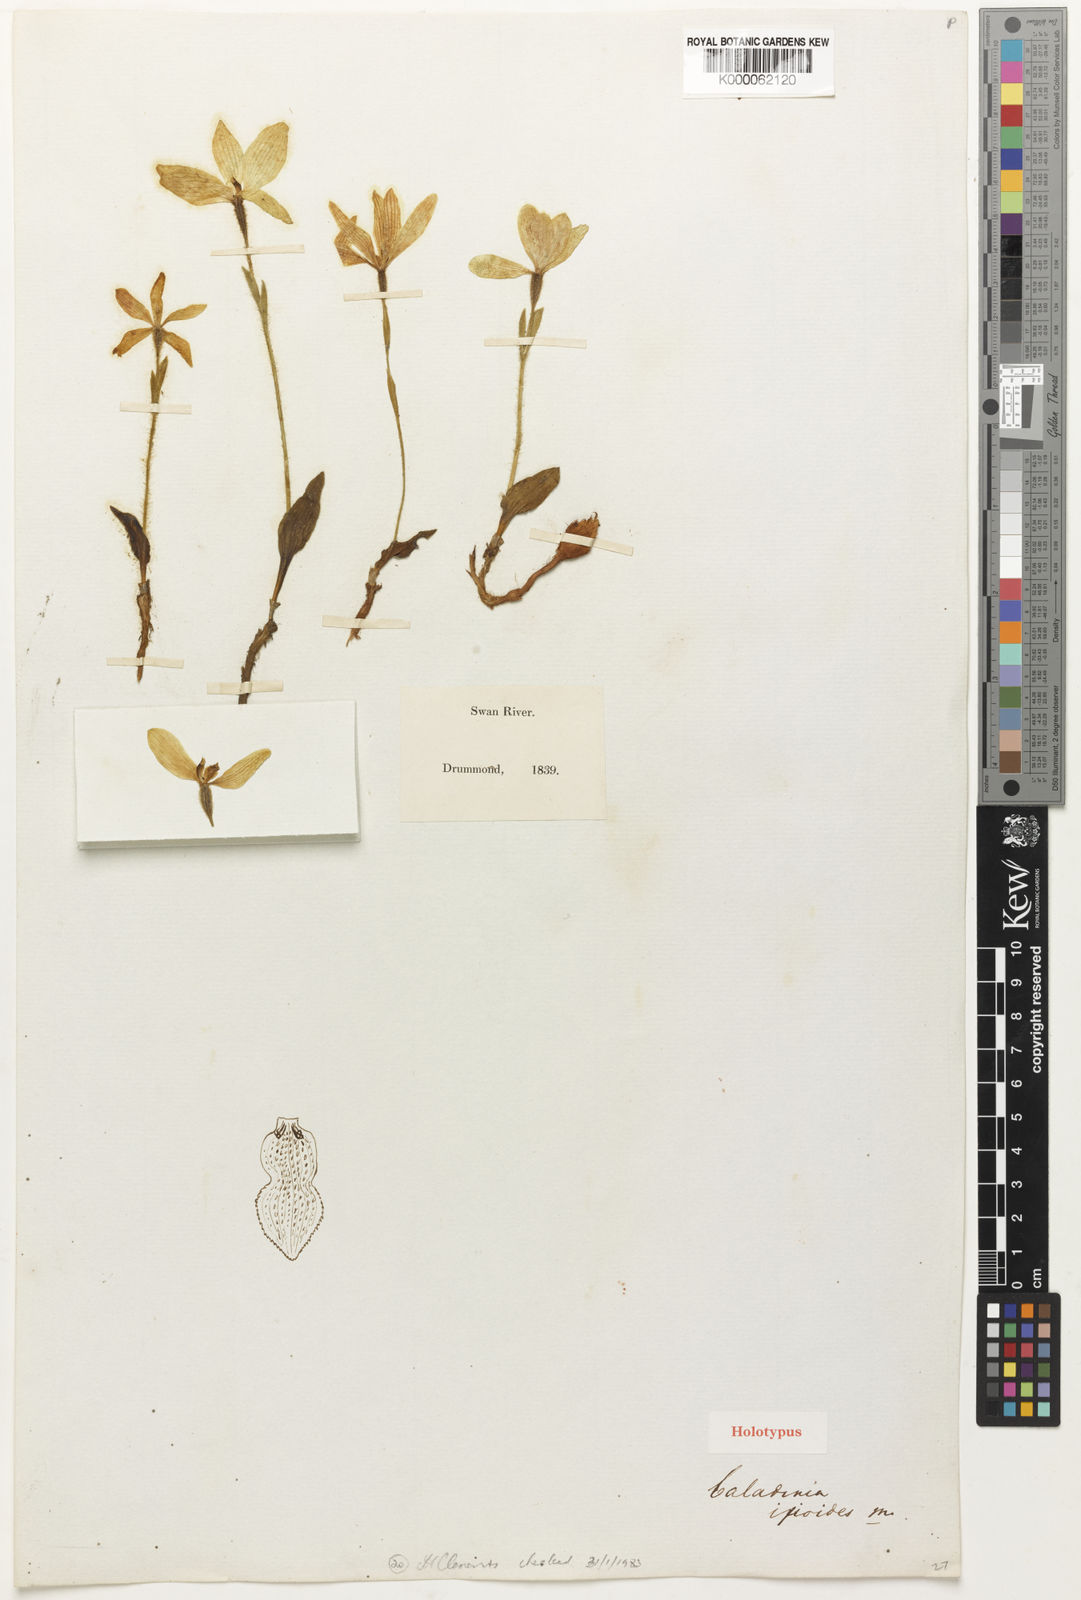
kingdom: Plantae
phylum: Tracheophyta
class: Liliopsida
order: Asparagales
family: Orchidaceae
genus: Caladenia
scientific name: Caladenia ixioides
